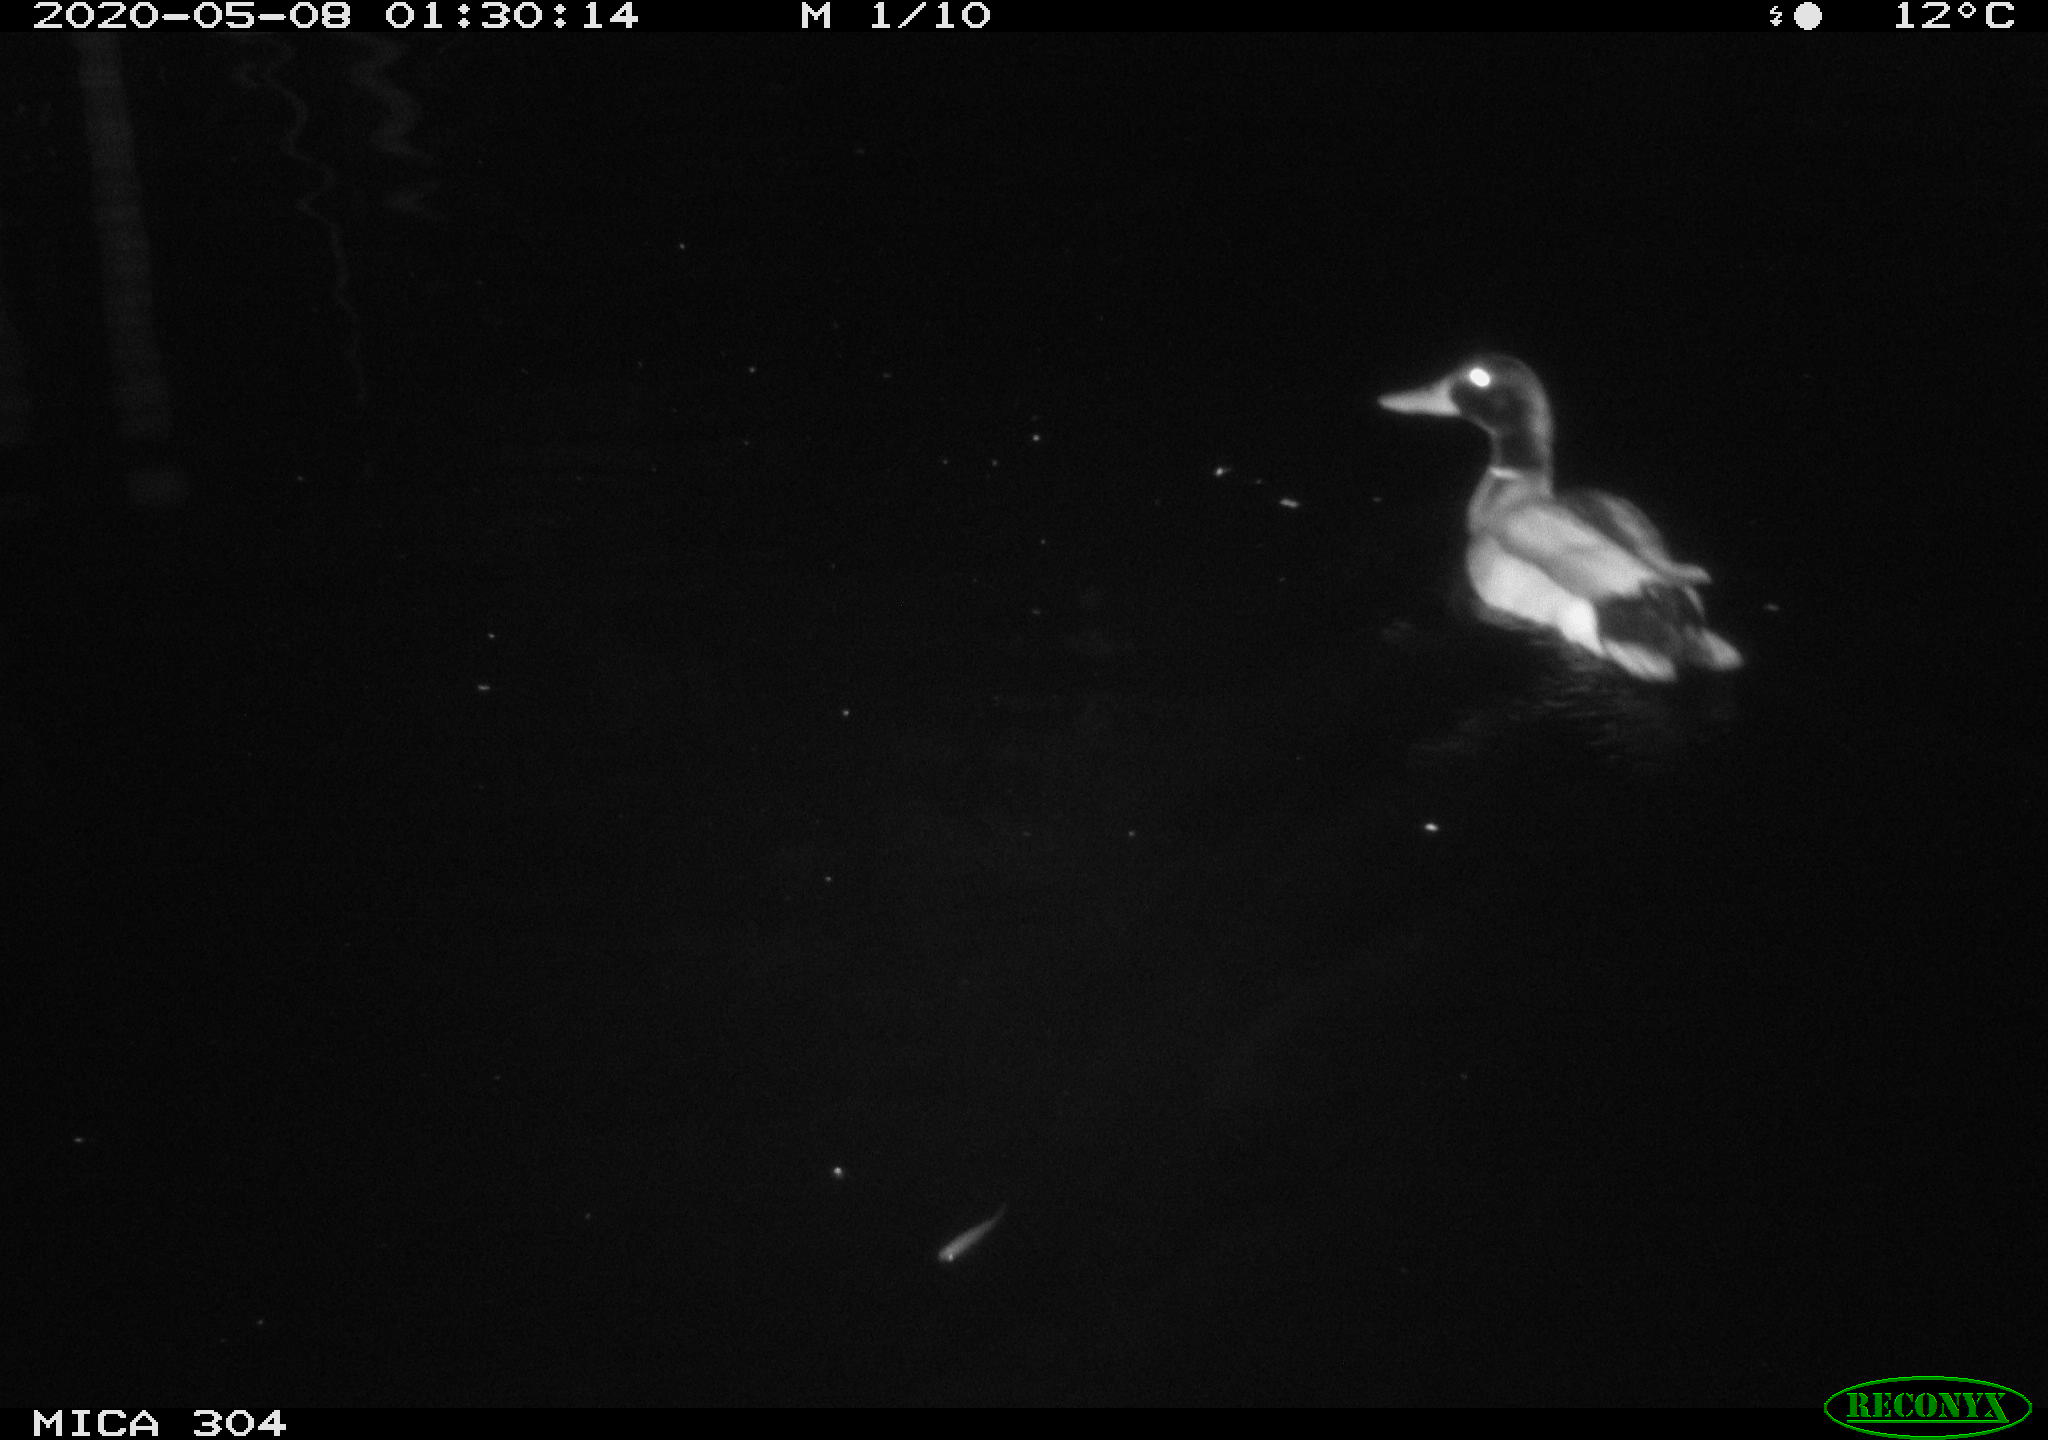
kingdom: Animalia
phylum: Chordata
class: Aves
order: Anseriformes
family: Anatidae
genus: Anas
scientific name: Anas platyrhynchos
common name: Mallard
